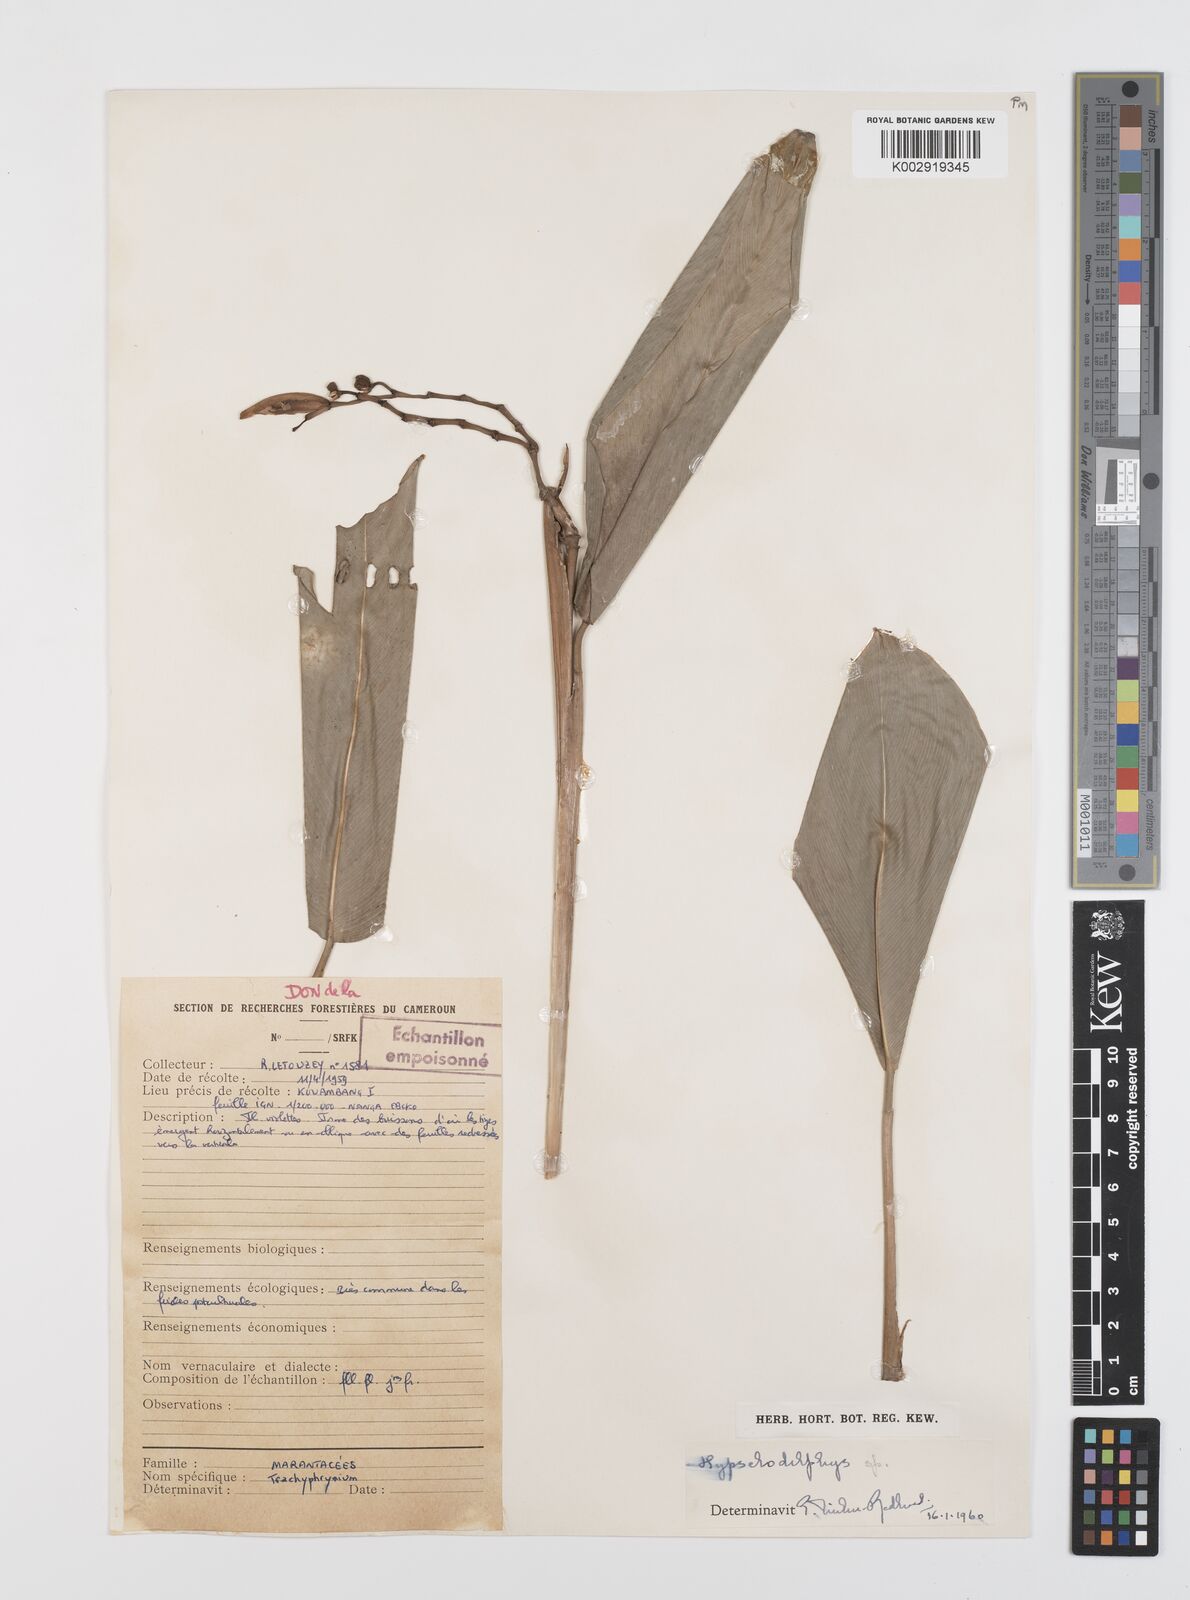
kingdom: Plantae
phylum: Tracheophyta
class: Liliopsida
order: Zingiberales
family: Marantaceae
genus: Hypselodelphys
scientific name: Hypselodelphys
